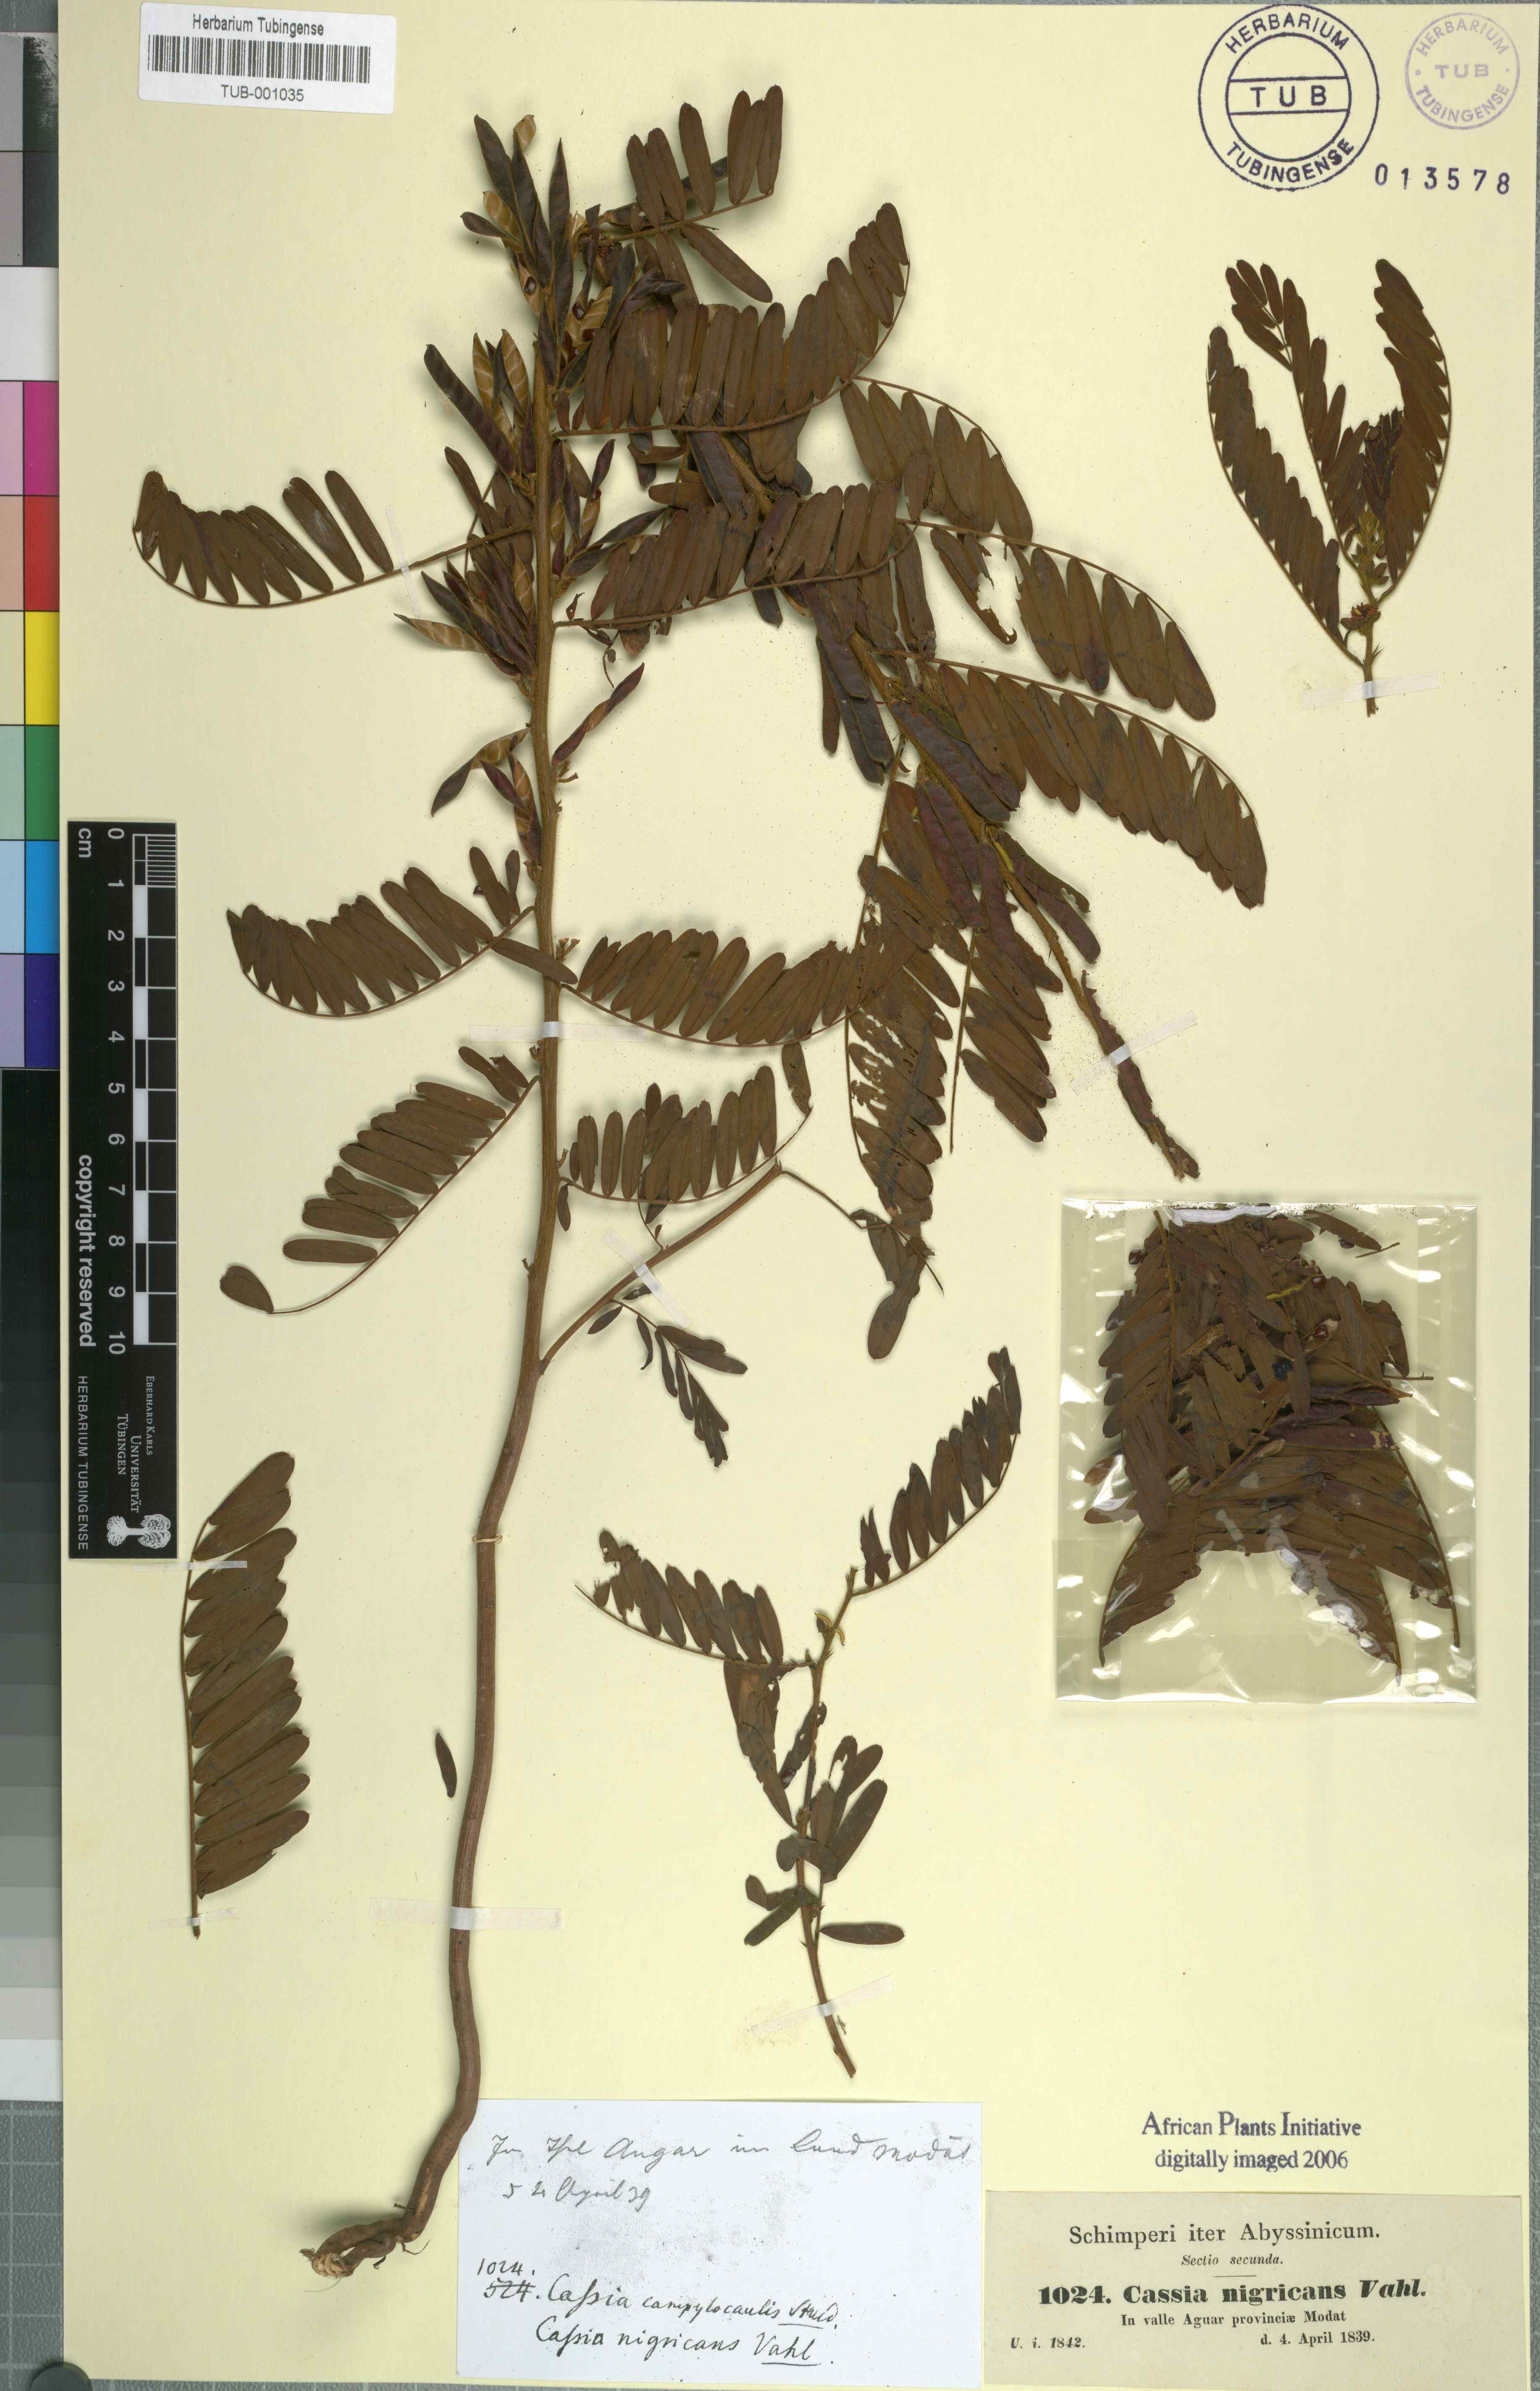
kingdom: Plantae
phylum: Tracheophyta
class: Magnoliopsida
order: Fabales
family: Fabaceae
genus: Chamaecrista
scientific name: Chamaecrista nigricans
